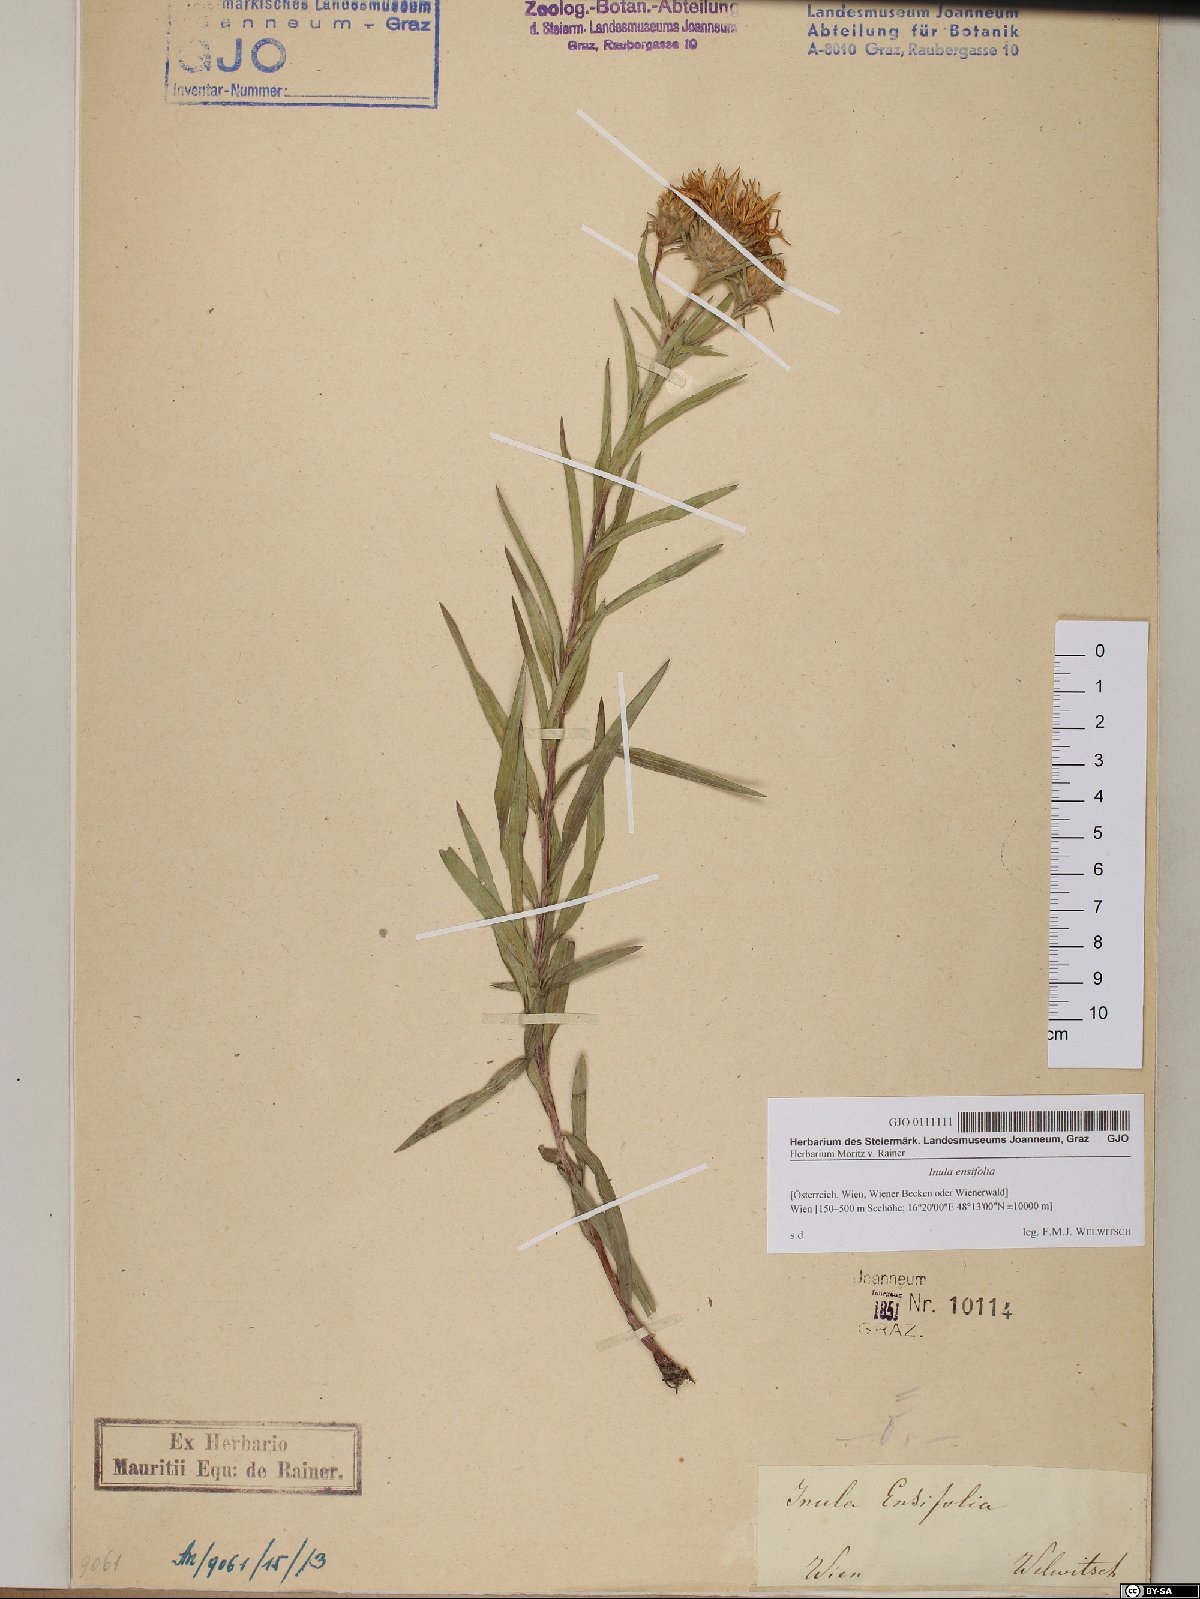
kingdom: Plantae
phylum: Tracheophyta
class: Magnoliopsida
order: Asterales
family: Asteraceae
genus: Pentanema
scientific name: Pentanema ensifolium
